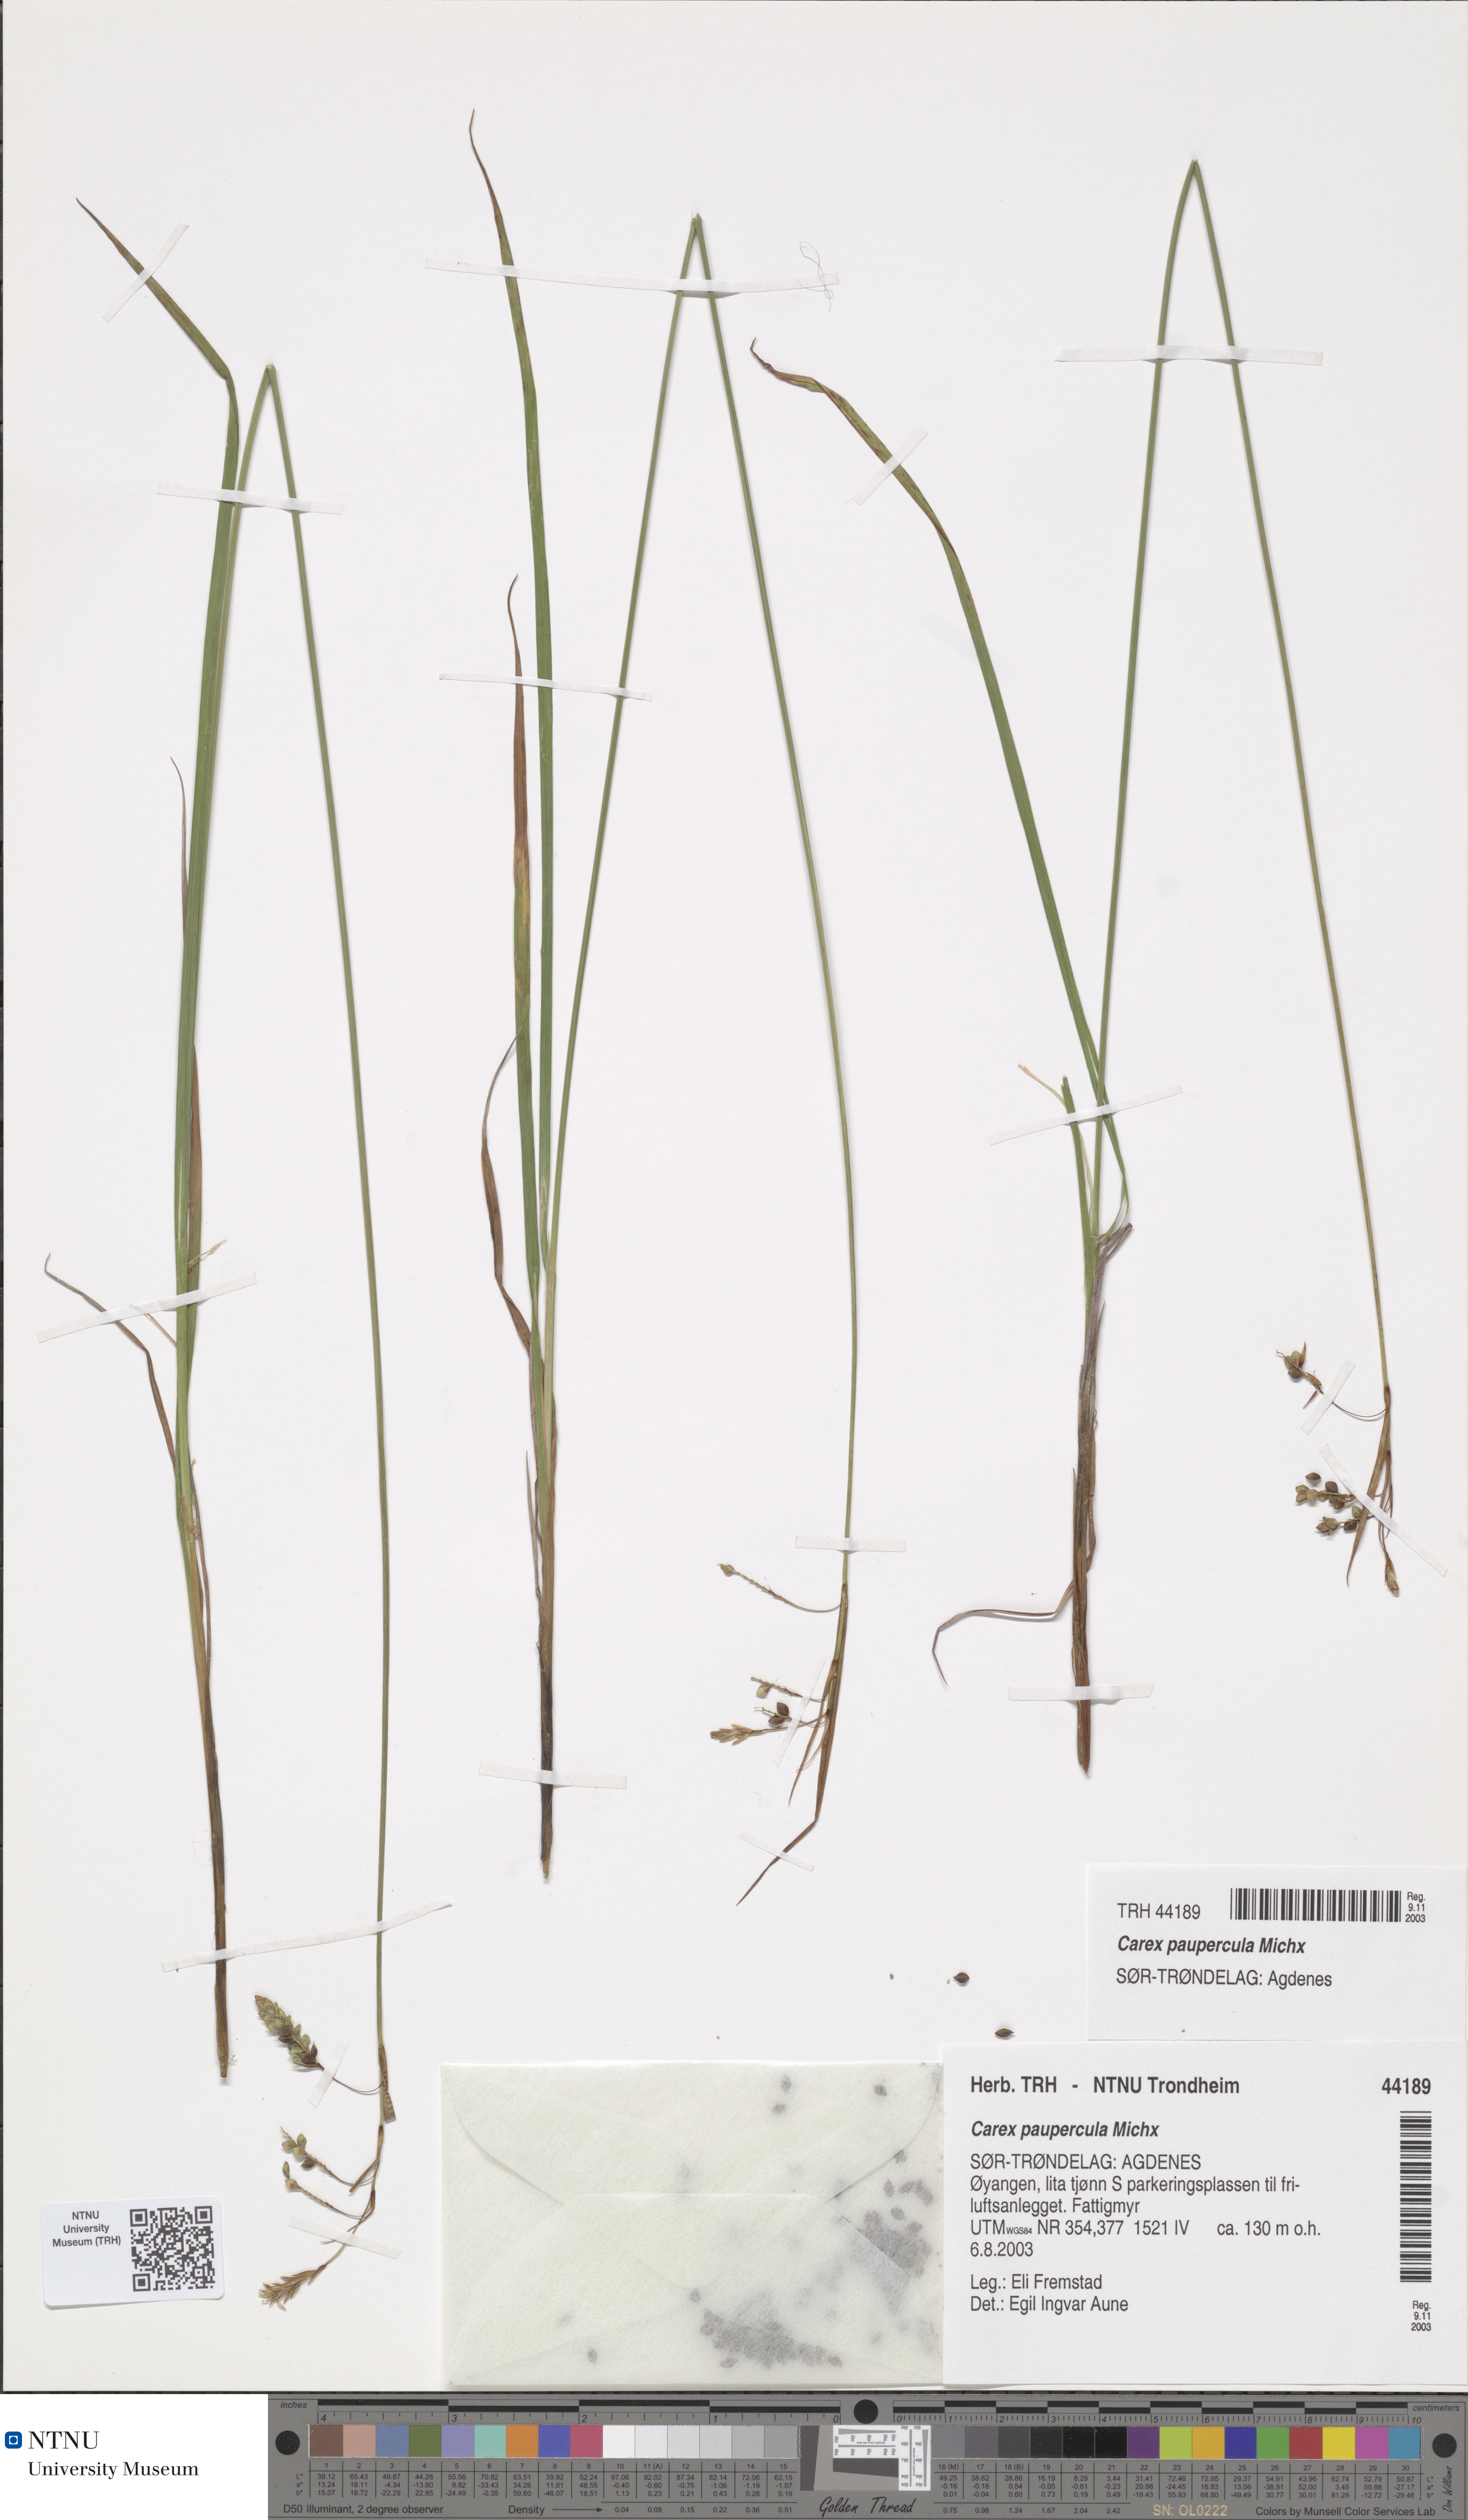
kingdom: Plantae
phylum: Tracheophyta
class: Liliopsida
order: Poales
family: Cyperaceae
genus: Carex
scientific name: Carex magellanica
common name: Bog sedge
